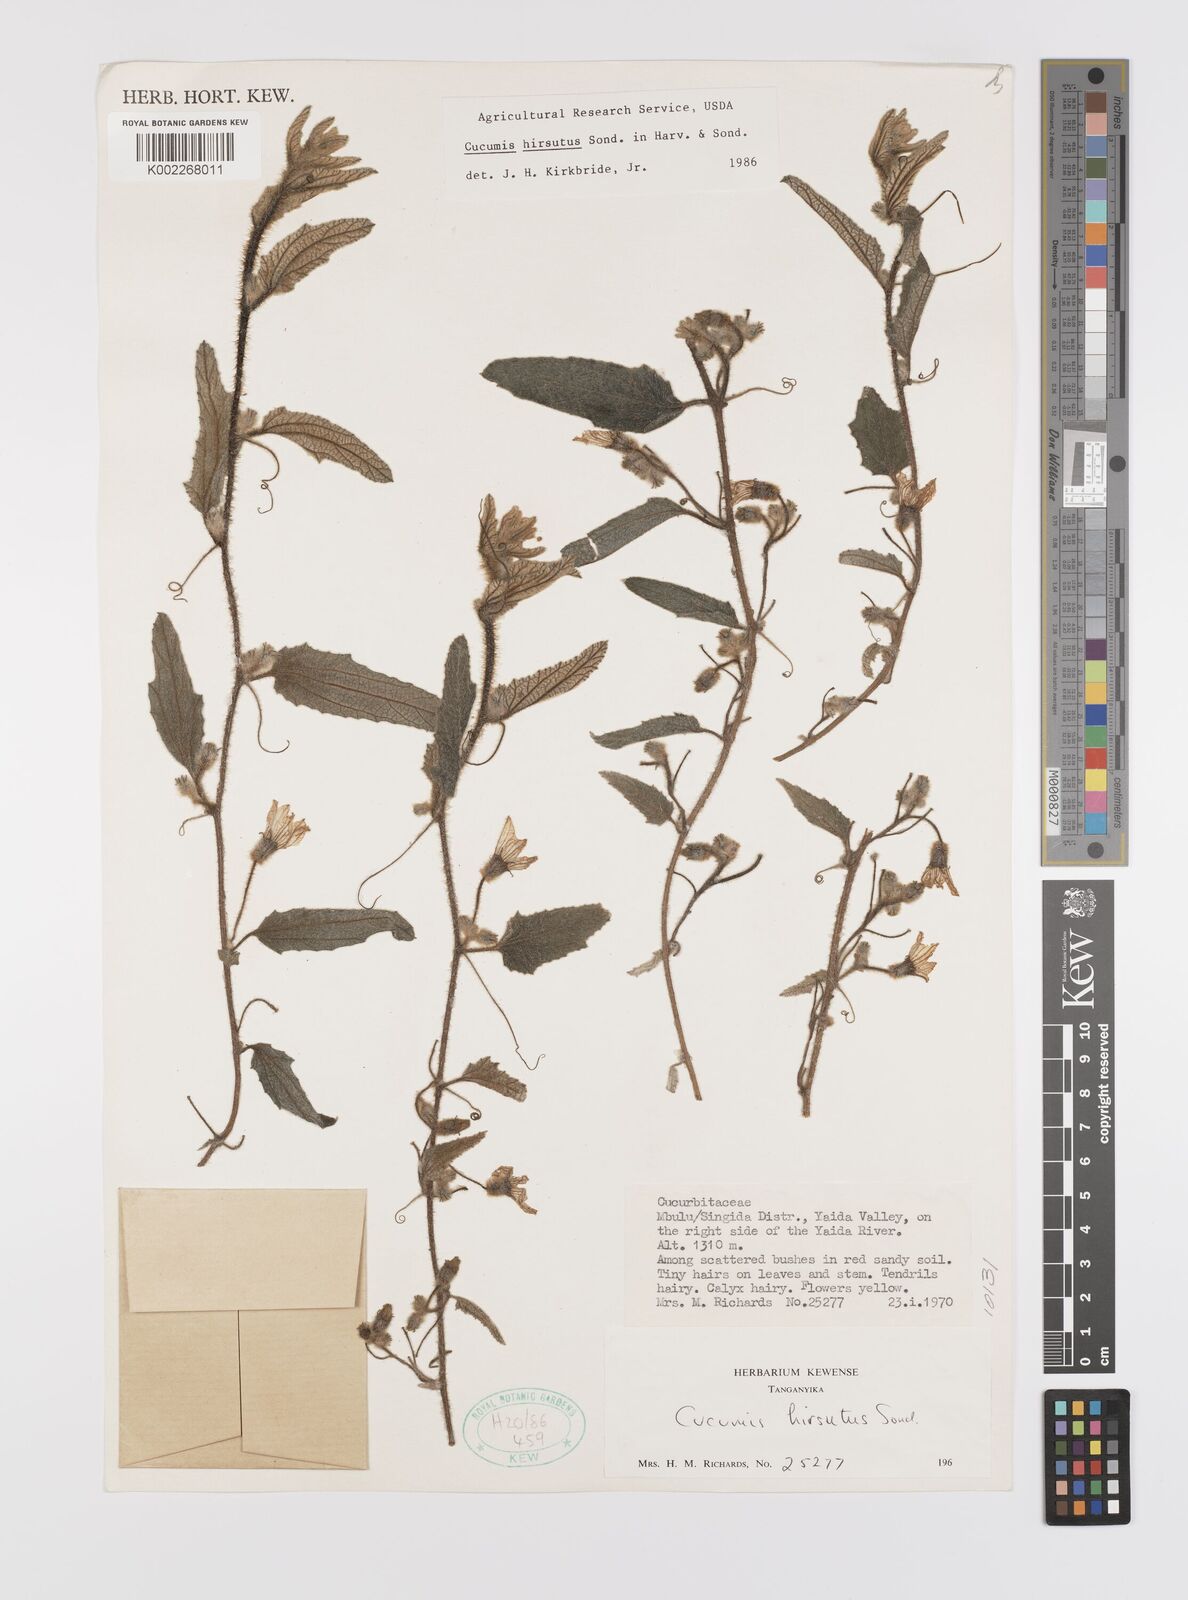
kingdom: Plantae
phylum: Tracheophyta
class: Magnoliopsida
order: Cucurbitales
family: Cucurbitaceae
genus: Cucumis
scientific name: Cucumis hirsutus
